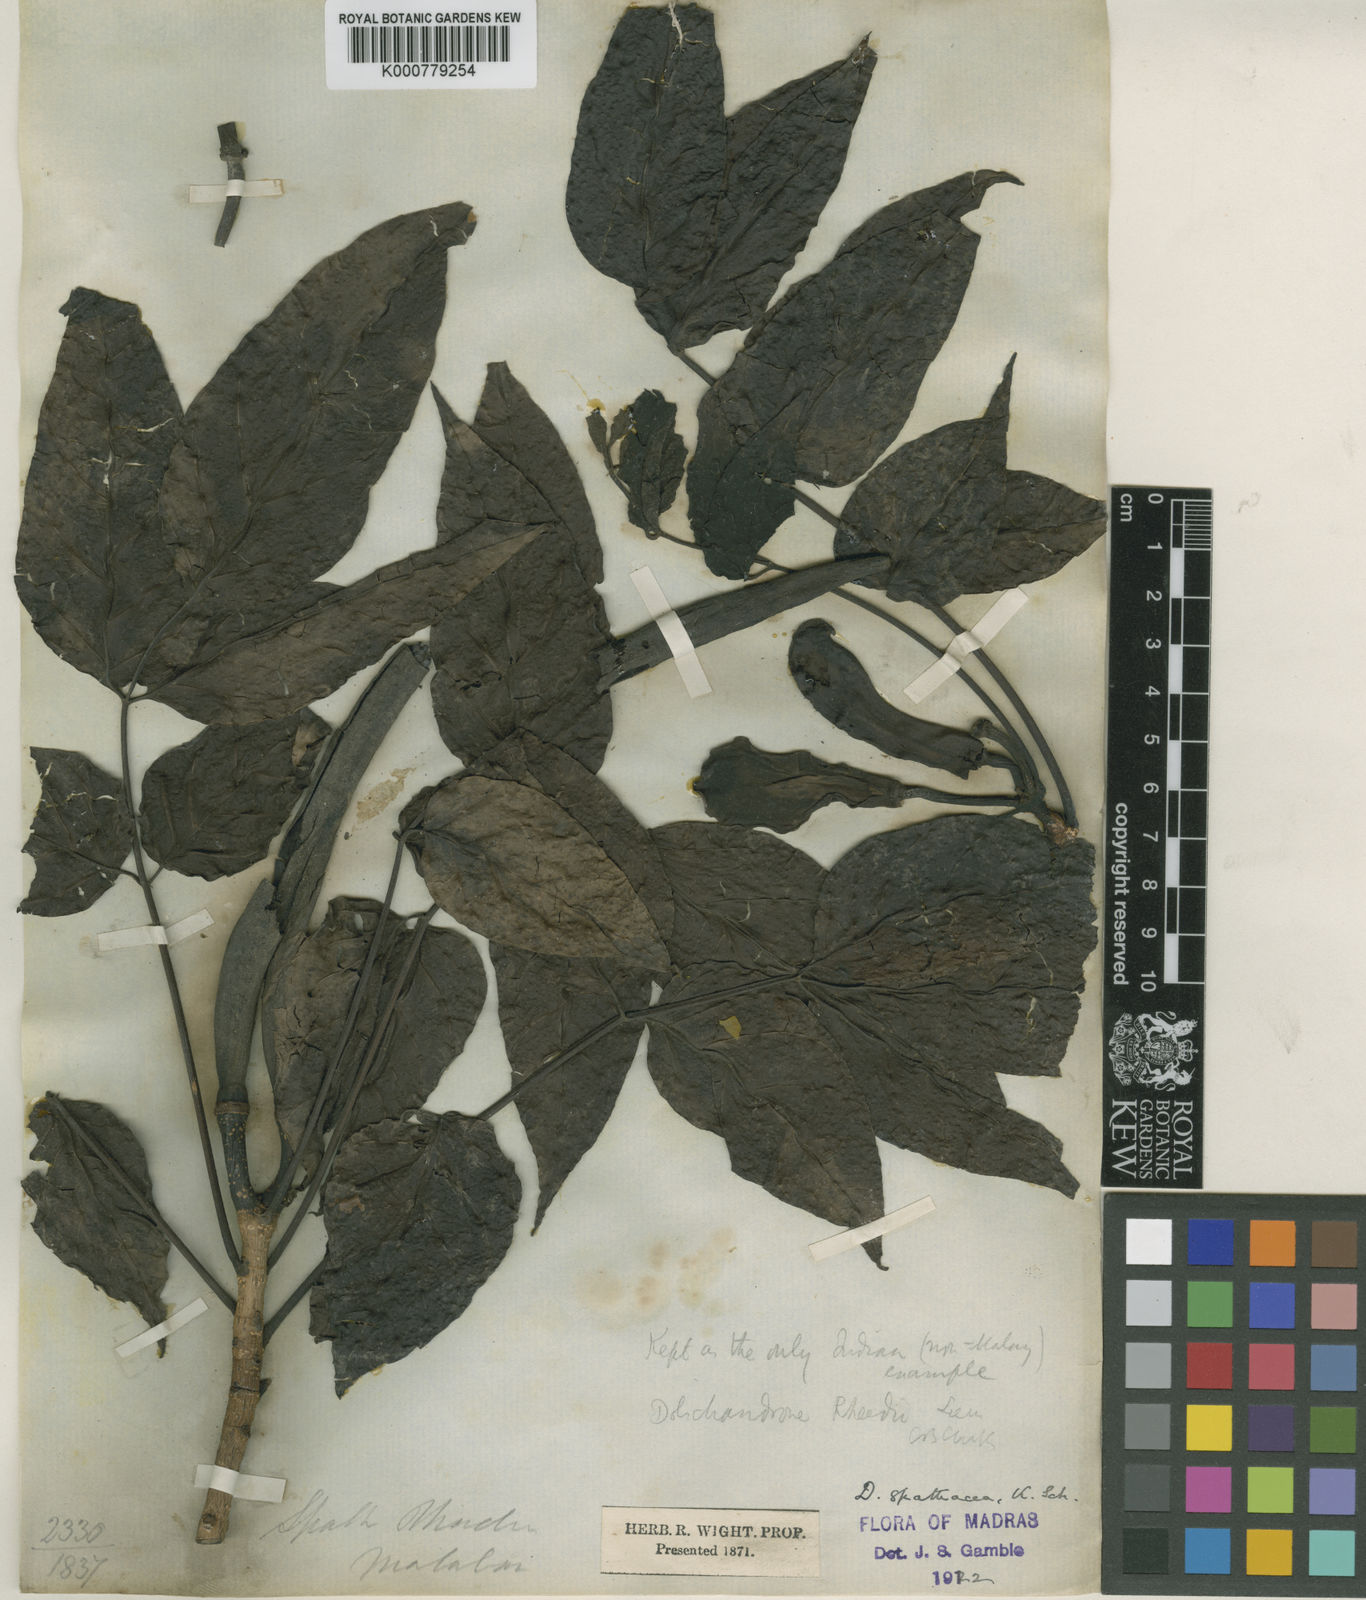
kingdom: Plantae
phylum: Tracheophyta
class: Magnoliopsida
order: Lamiales
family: Bignoniaceae
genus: Dolichandrone
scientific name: Dolichandrone spathacea
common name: Mangrove trumpet-tree
